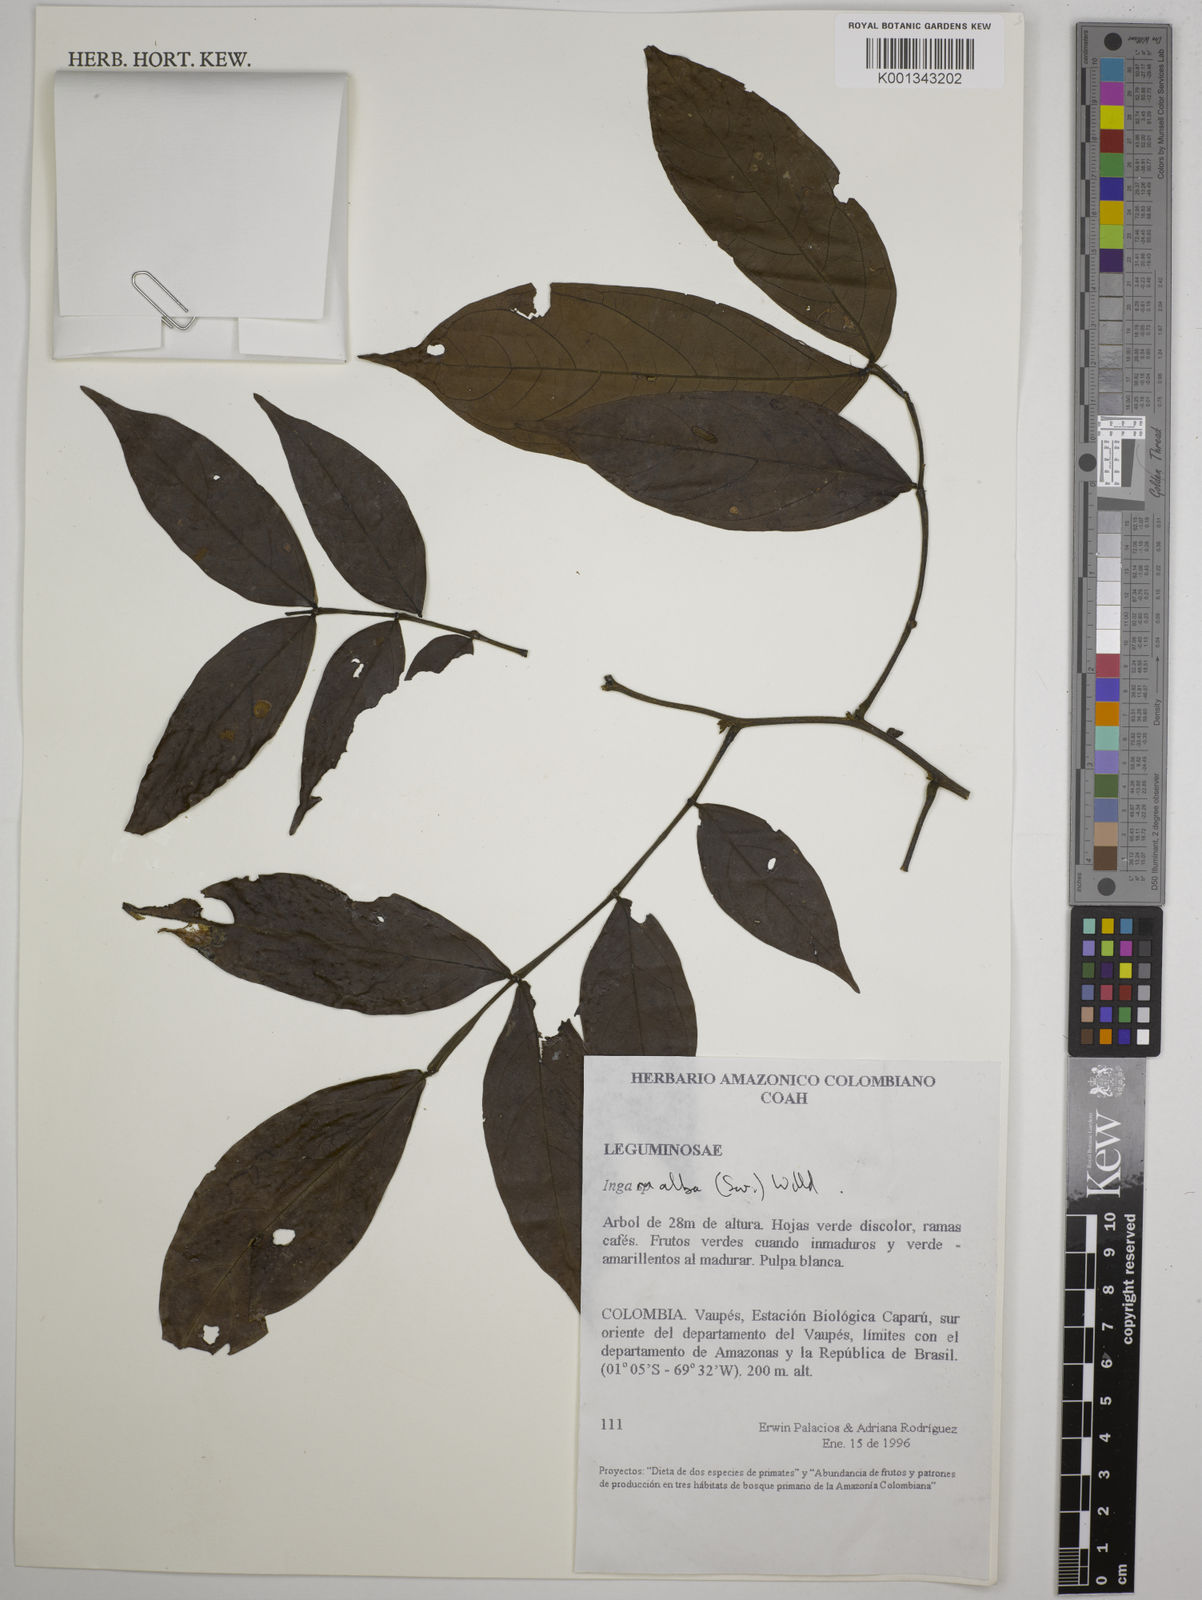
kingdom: Plantae
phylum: Tracheophyta
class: Magnoliopsida
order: Fabales
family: Fabaceae
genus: Inga
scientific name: Inga alba
